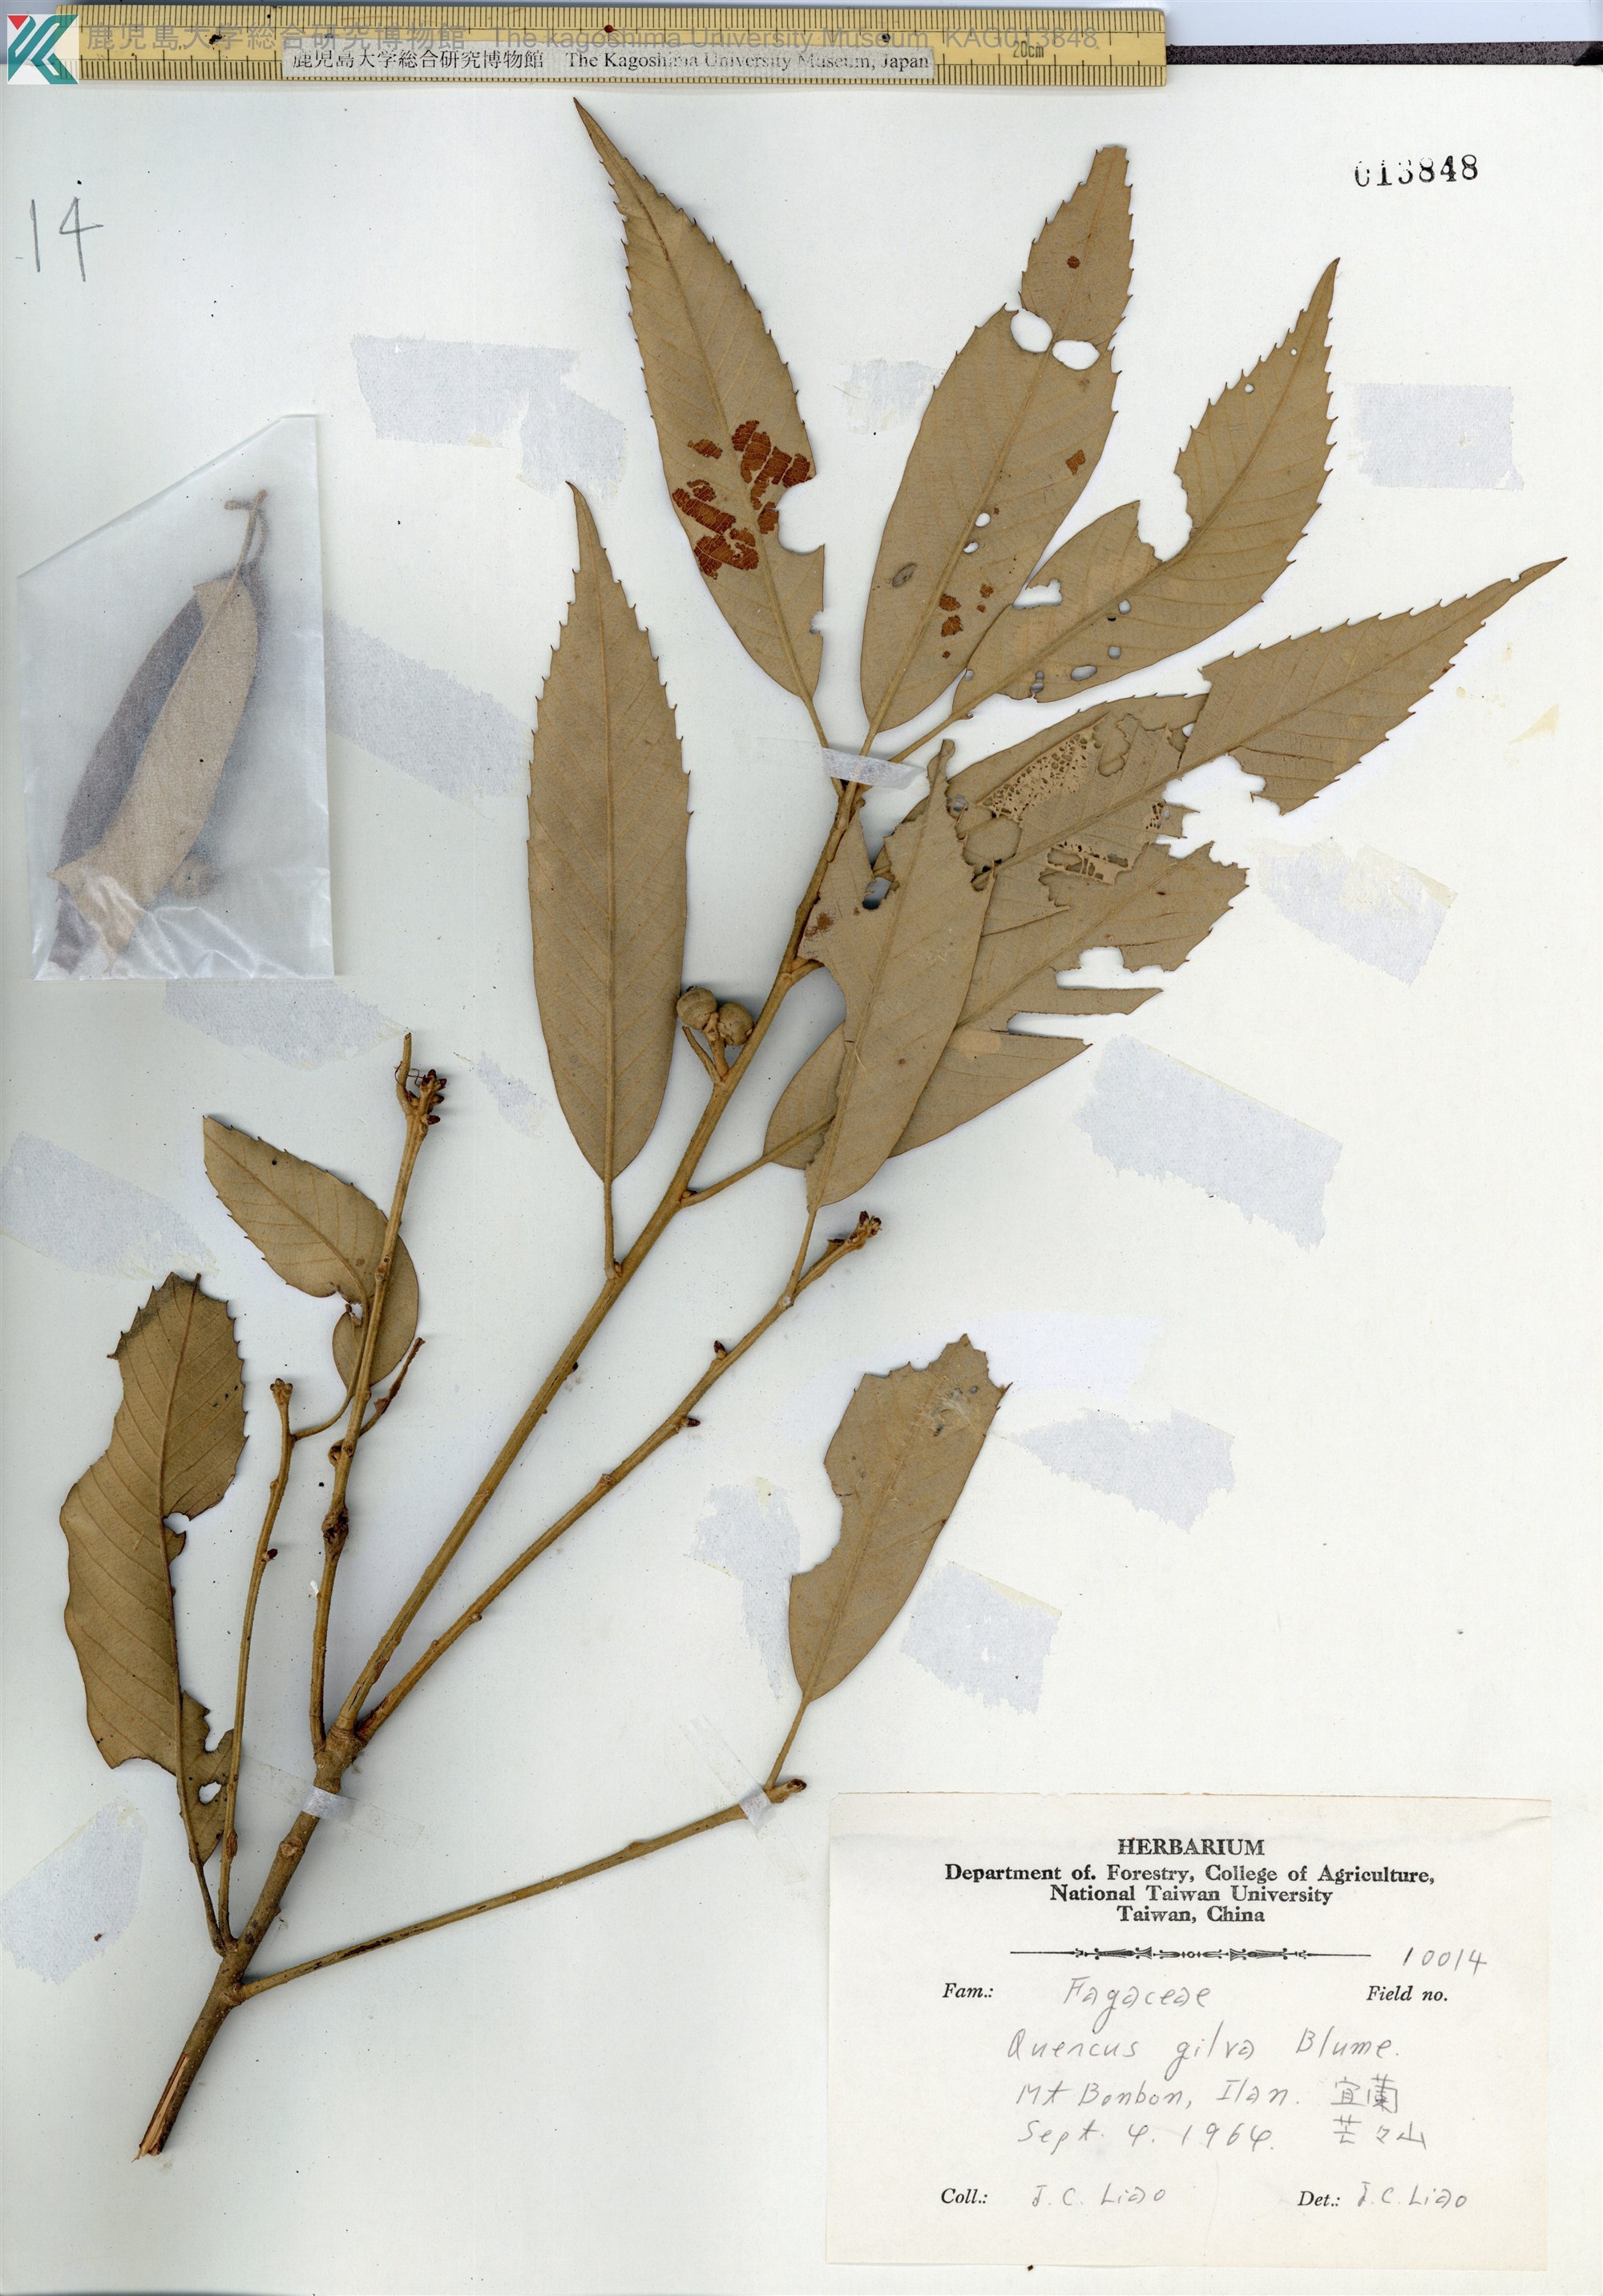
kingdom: Plantae
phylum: Tracheophyta
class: Magnoliopsida
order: Fagales
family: Fagaceae
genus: Quercus
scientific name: Quercus gilva
